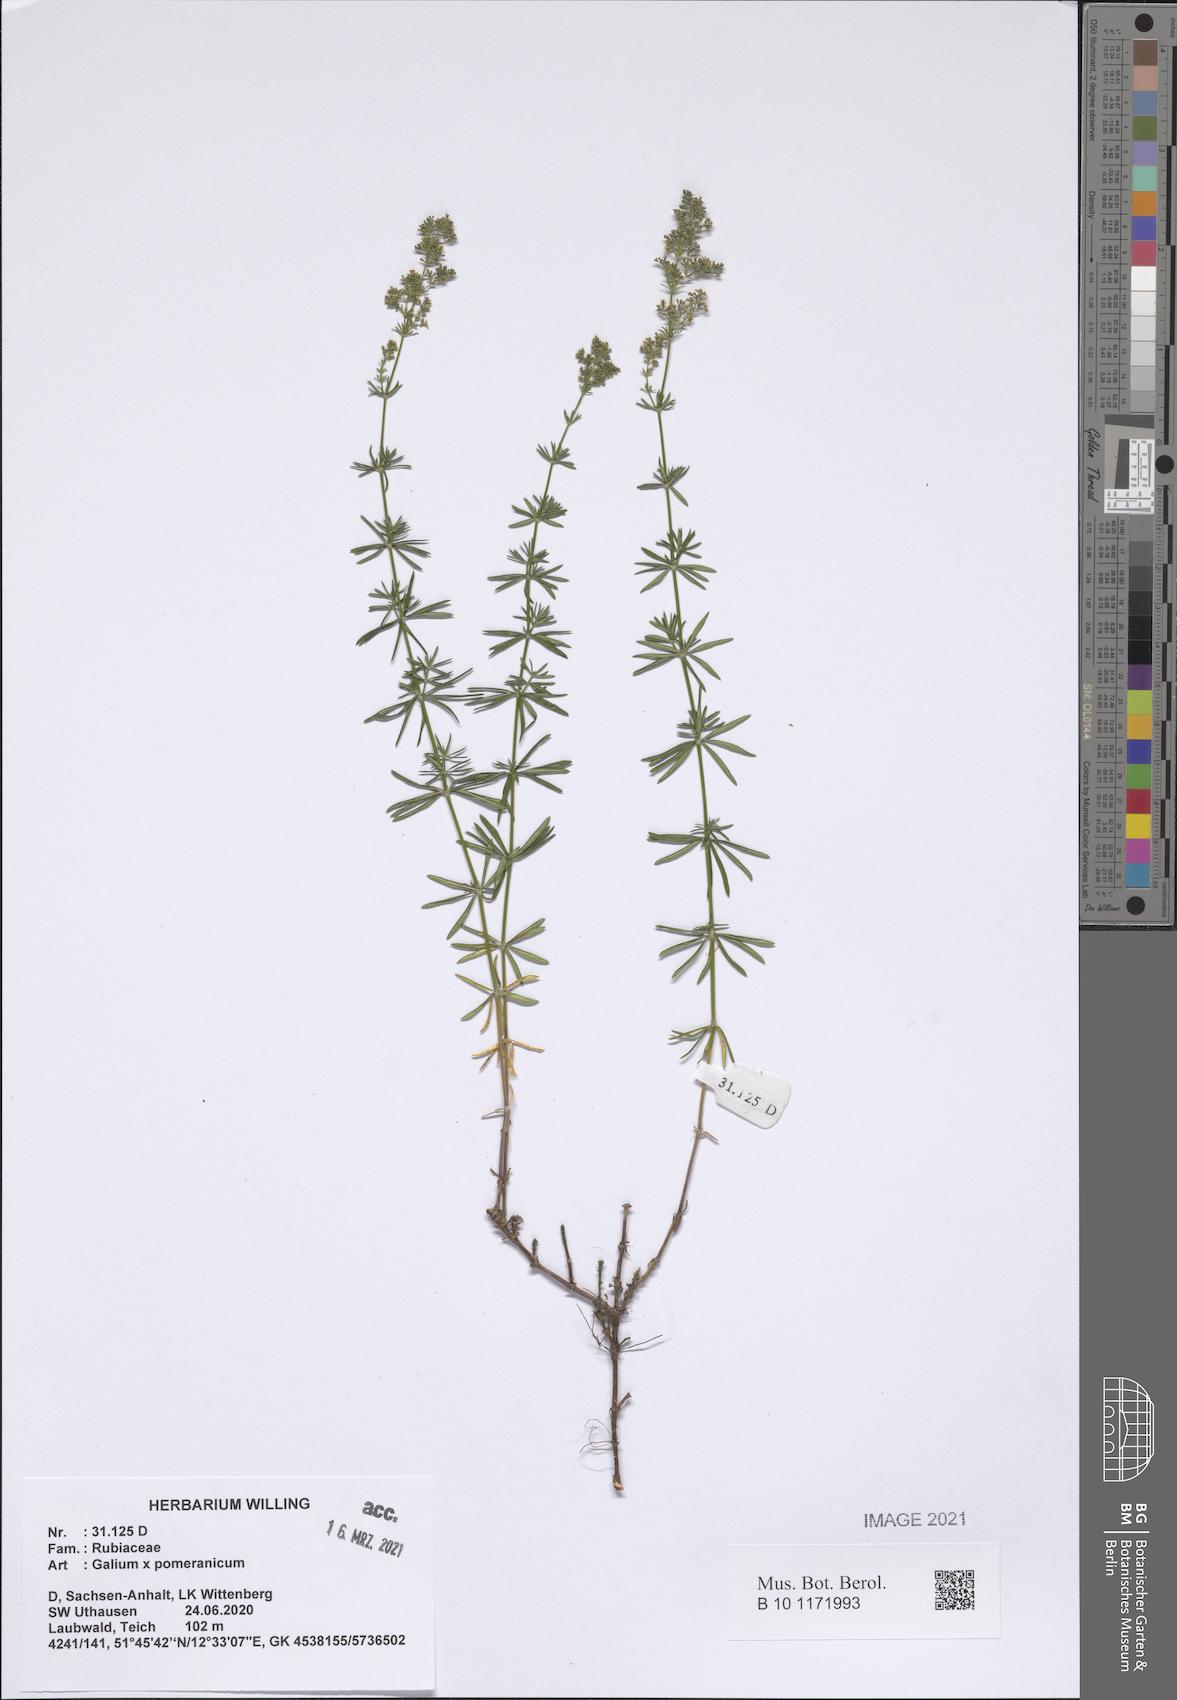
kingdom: Plantae
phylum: Tracheophyta
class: Magnoliopsida
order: Gentianales
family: Rubiaceae
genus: Galium
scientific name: Galium pomeranicum
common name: Bedstraw
